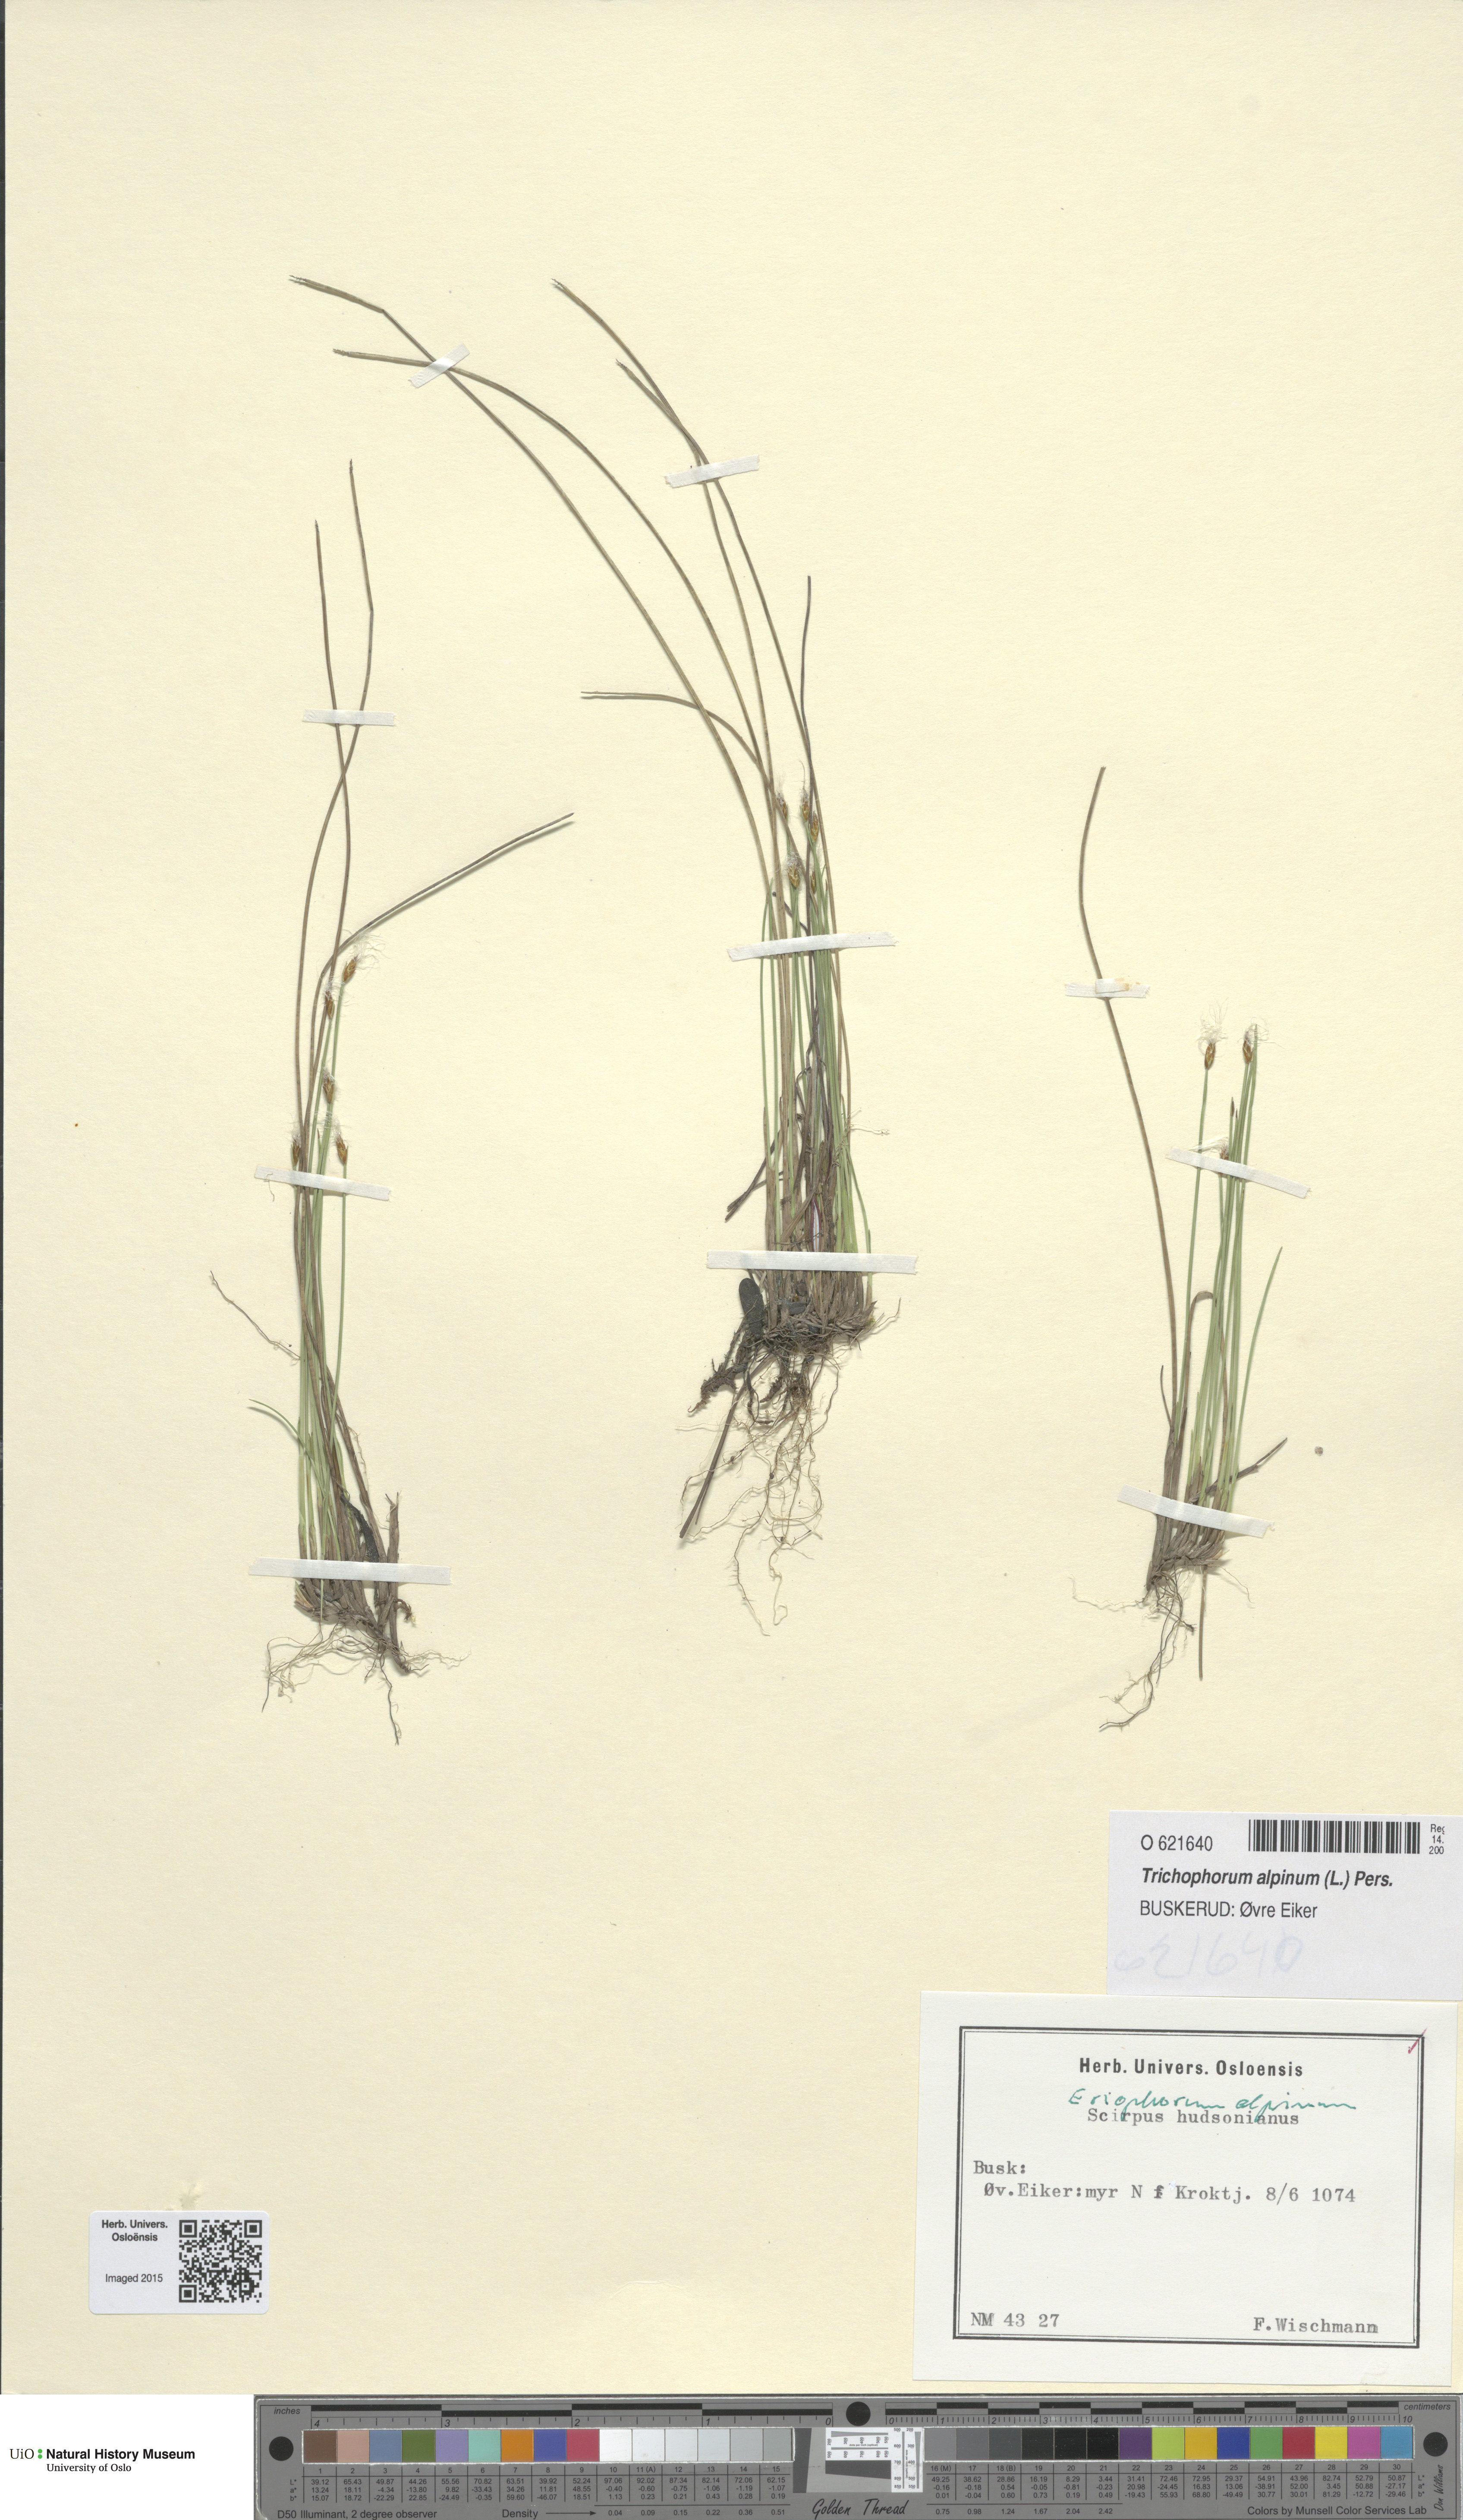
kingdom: Plantae
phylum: Tracheophyta
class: Liliopsida
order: Poales
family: Cyperaceae
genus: Trichophorum
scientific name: Trichophorum alpinum
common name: Alpine bulrush
